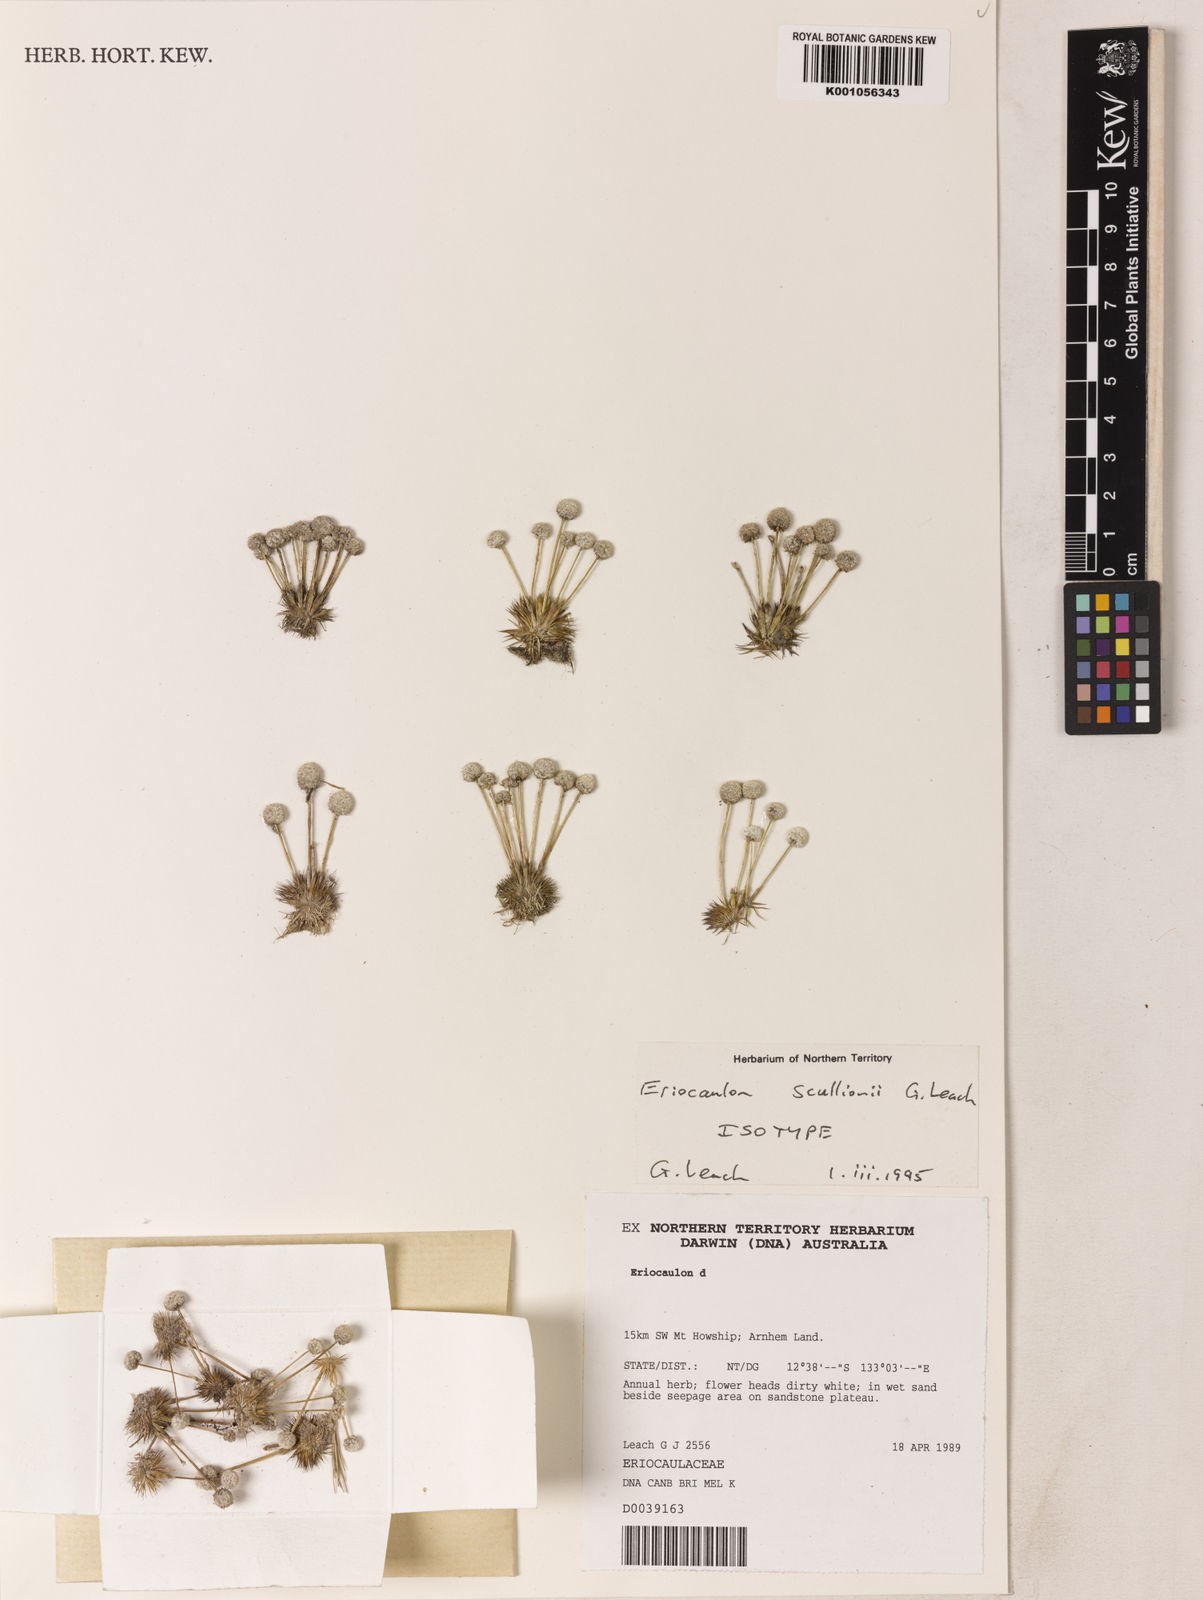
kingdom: Plantae
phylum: Tracheophyta
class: Liliopsida
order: Poales
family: Eriocaulaceae
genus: Eriocaulon
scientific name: Eriocaulon scullionii
